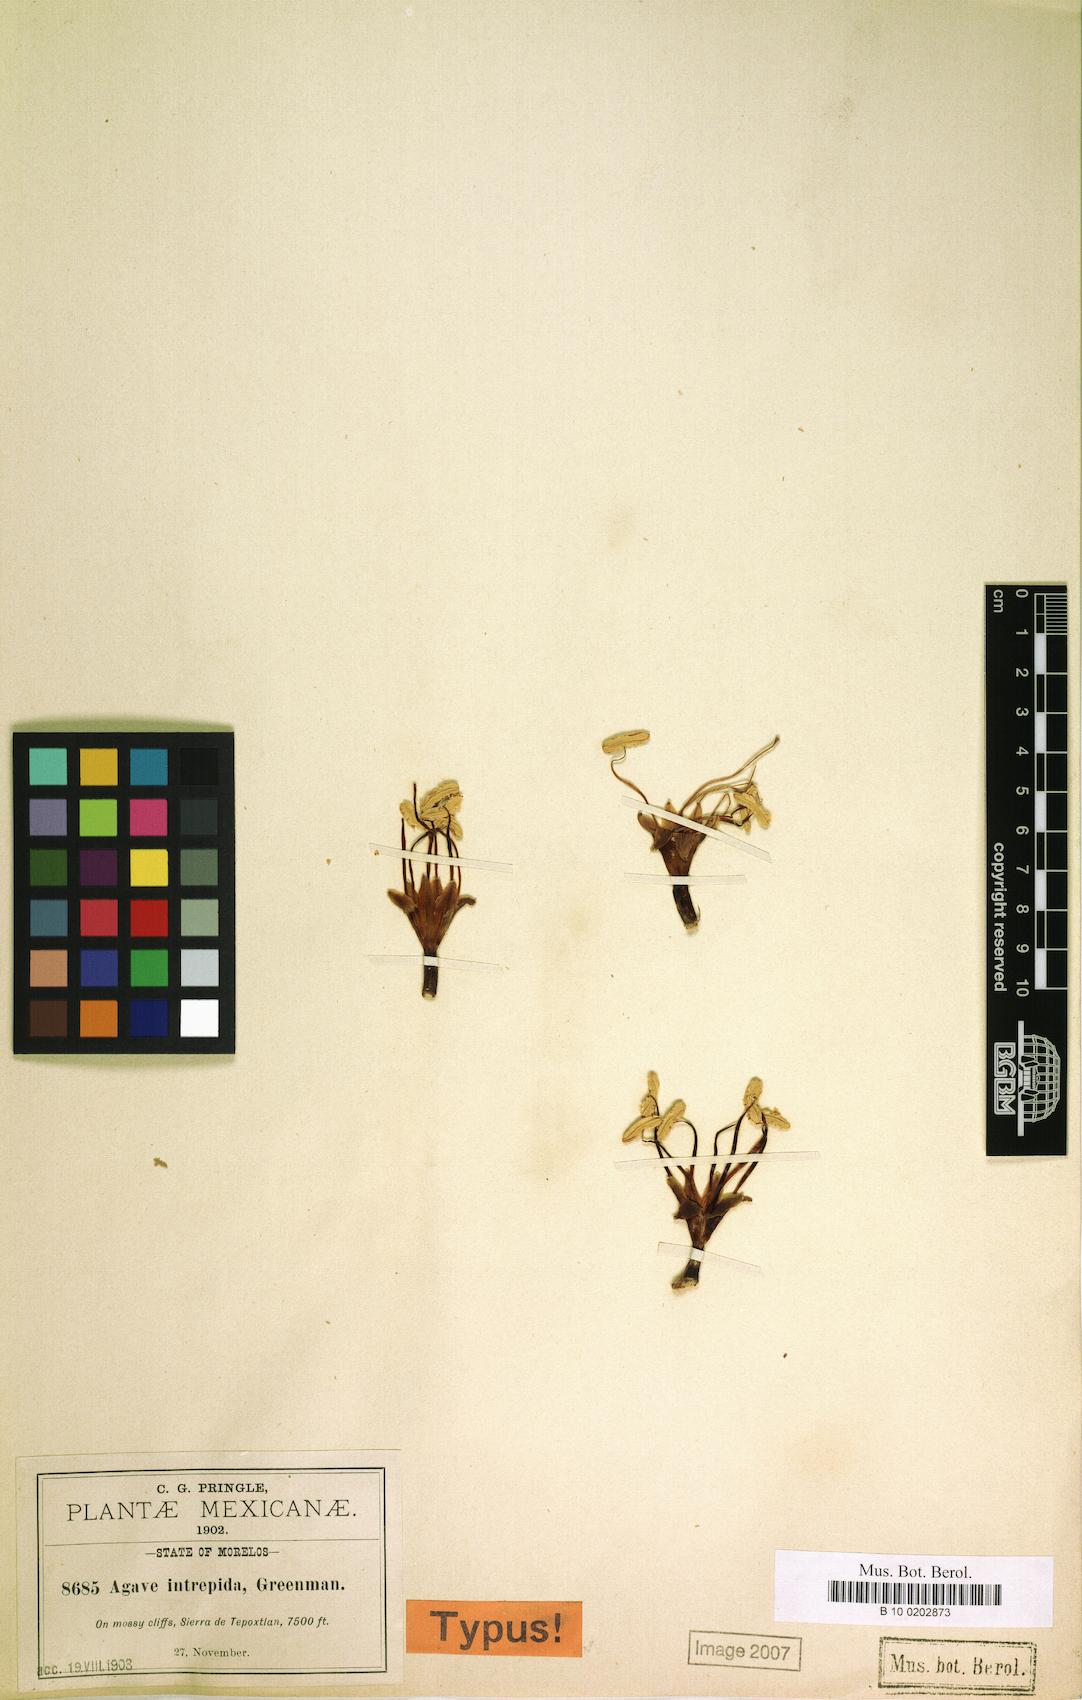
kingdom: Plantae
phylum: Tracheophyta
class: Liliopsida
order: Asparagales
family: Asparagaceae
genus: Agave
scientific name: Agave dealbata
